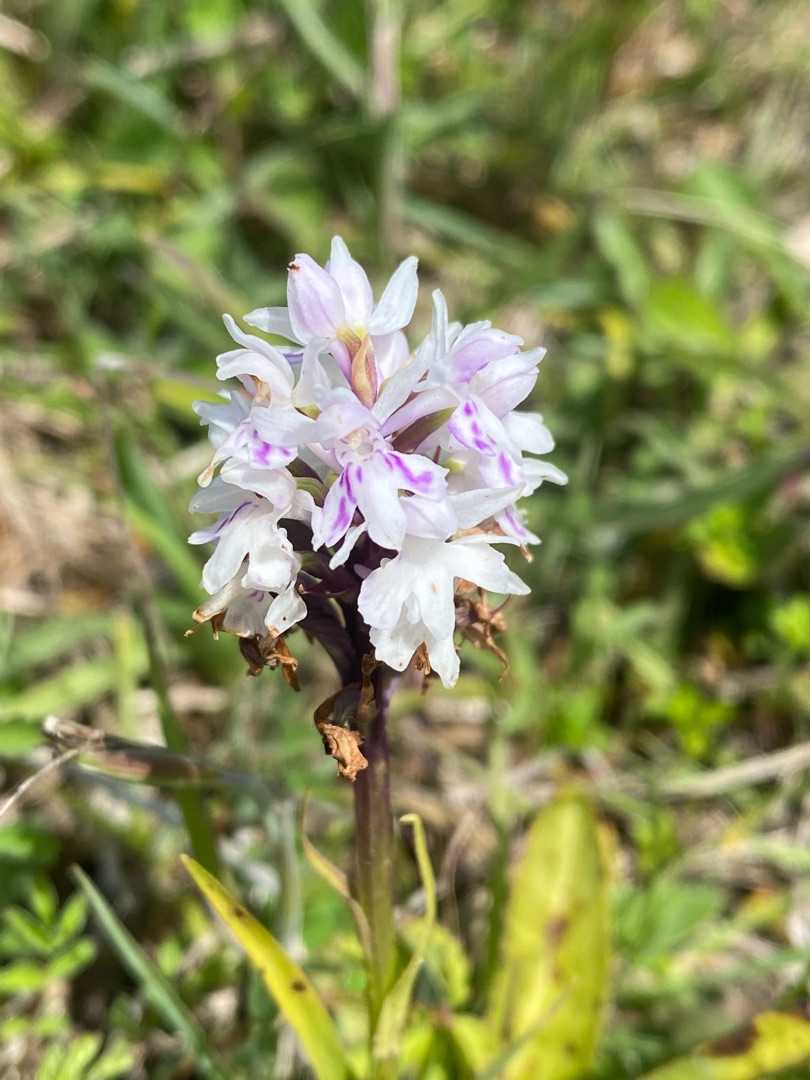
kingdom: Plantae
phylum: Tracheophyta
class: Liliopsida
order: Asparagales
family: Orchidaceae
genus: Dactylorhiza
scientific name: Dactylorhiza maculata
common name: Skov-gøgeurt
